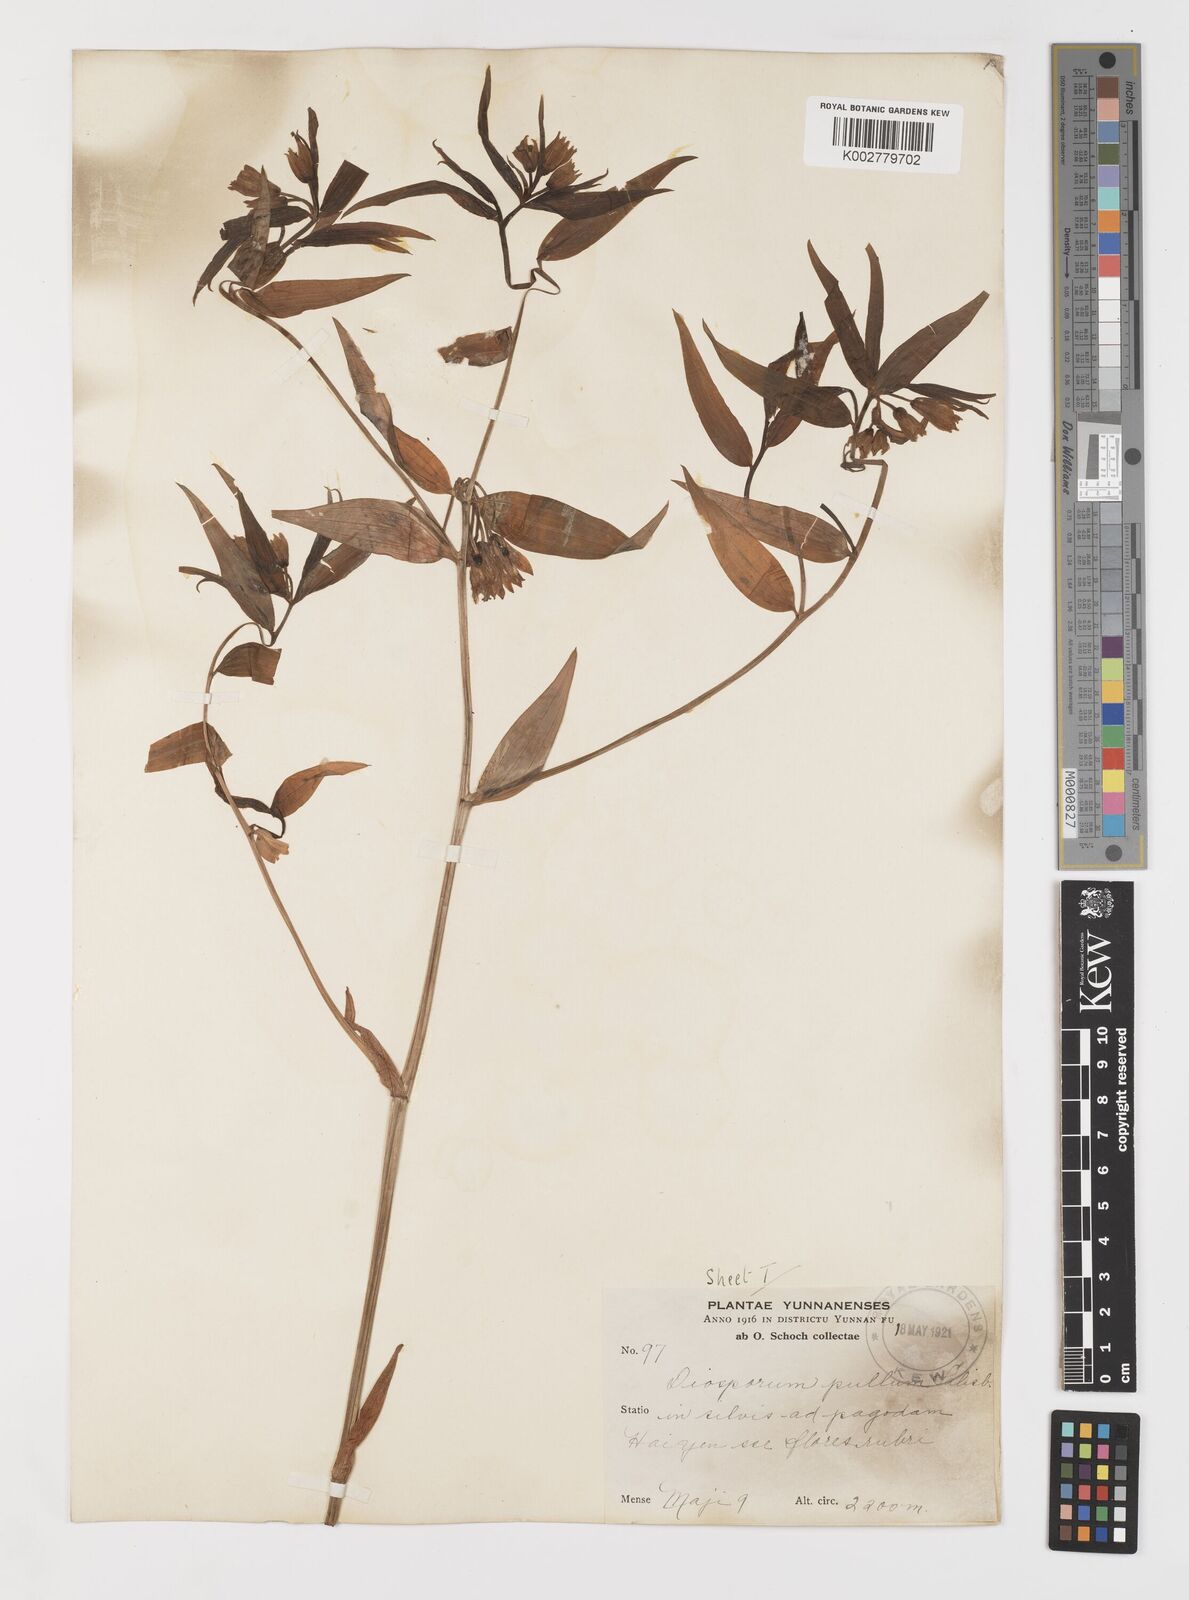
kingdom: Plantae
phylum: Tracheophyta
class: Liliopsida
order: Liliales
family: Colchicaceae
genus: Disporum
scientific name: Disporum cantoniense
